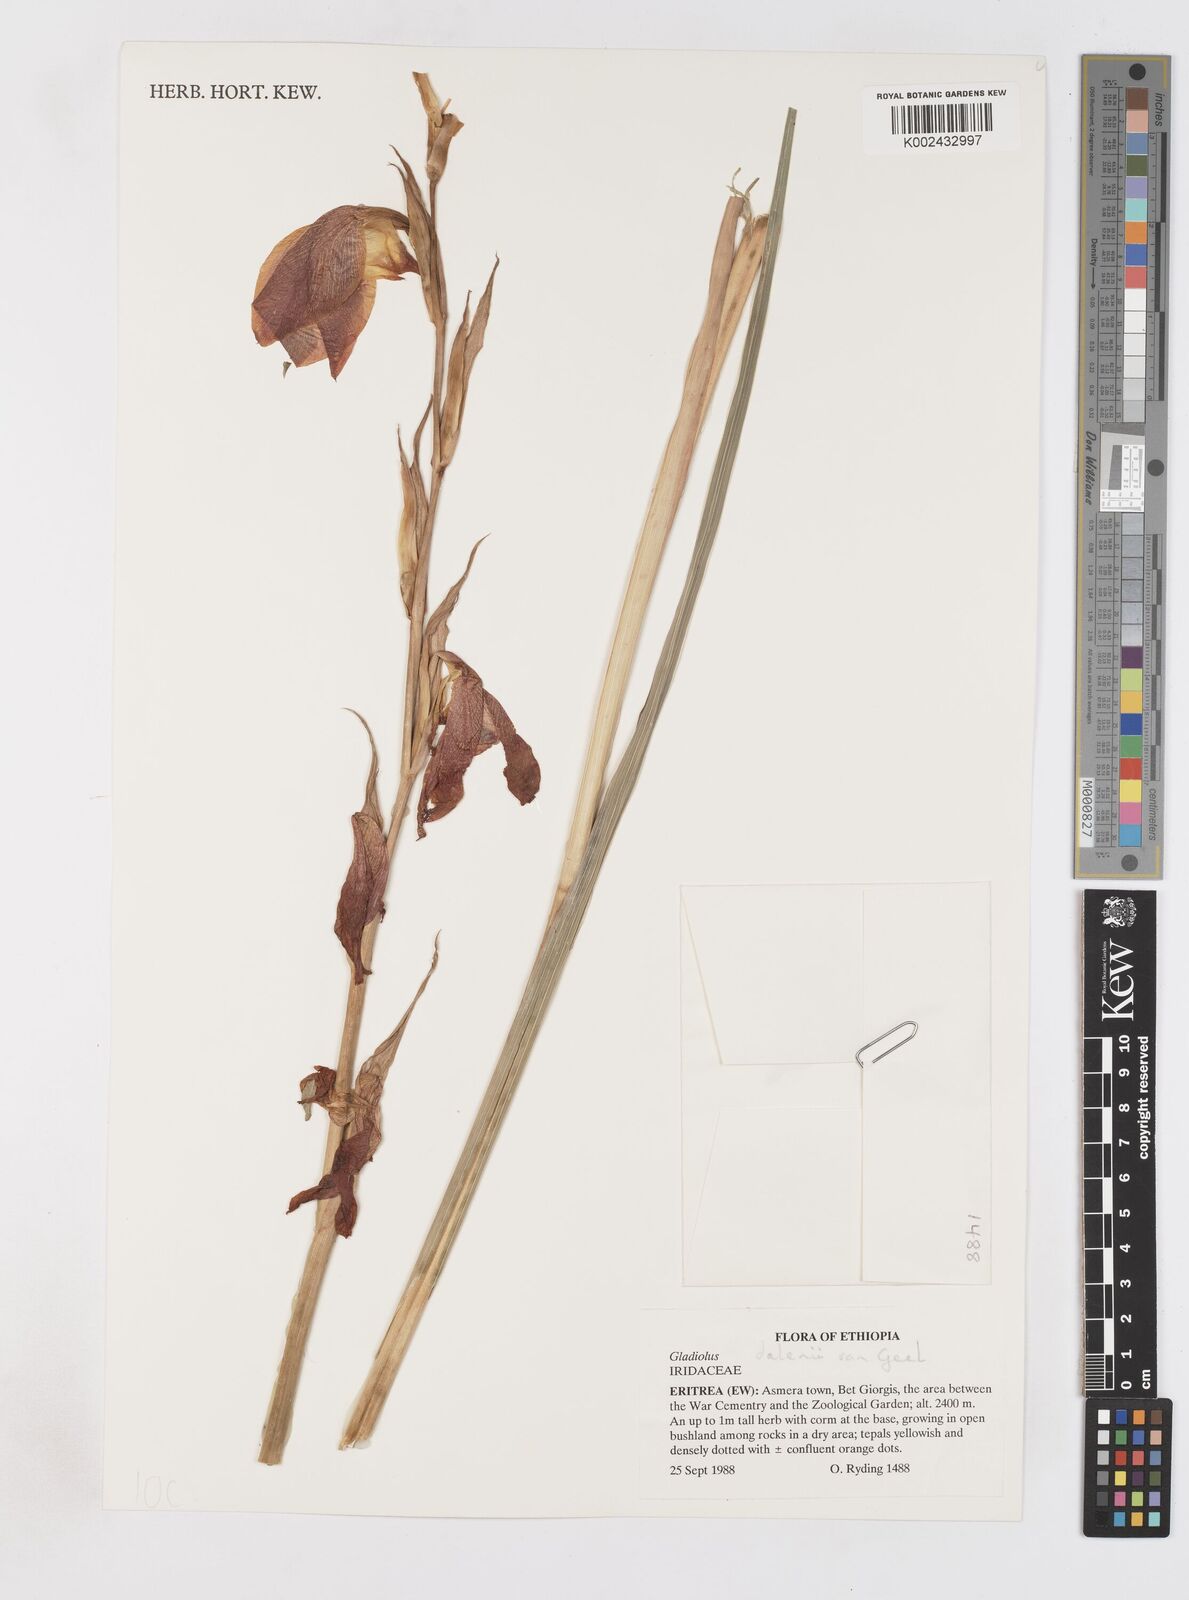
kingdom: Plantae
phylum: Tracheophyta
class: Liliopsida
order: Asparagales
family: Iridaceae
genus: Gladiolus
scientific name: Gladiolus dalenii
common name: Cornflag
